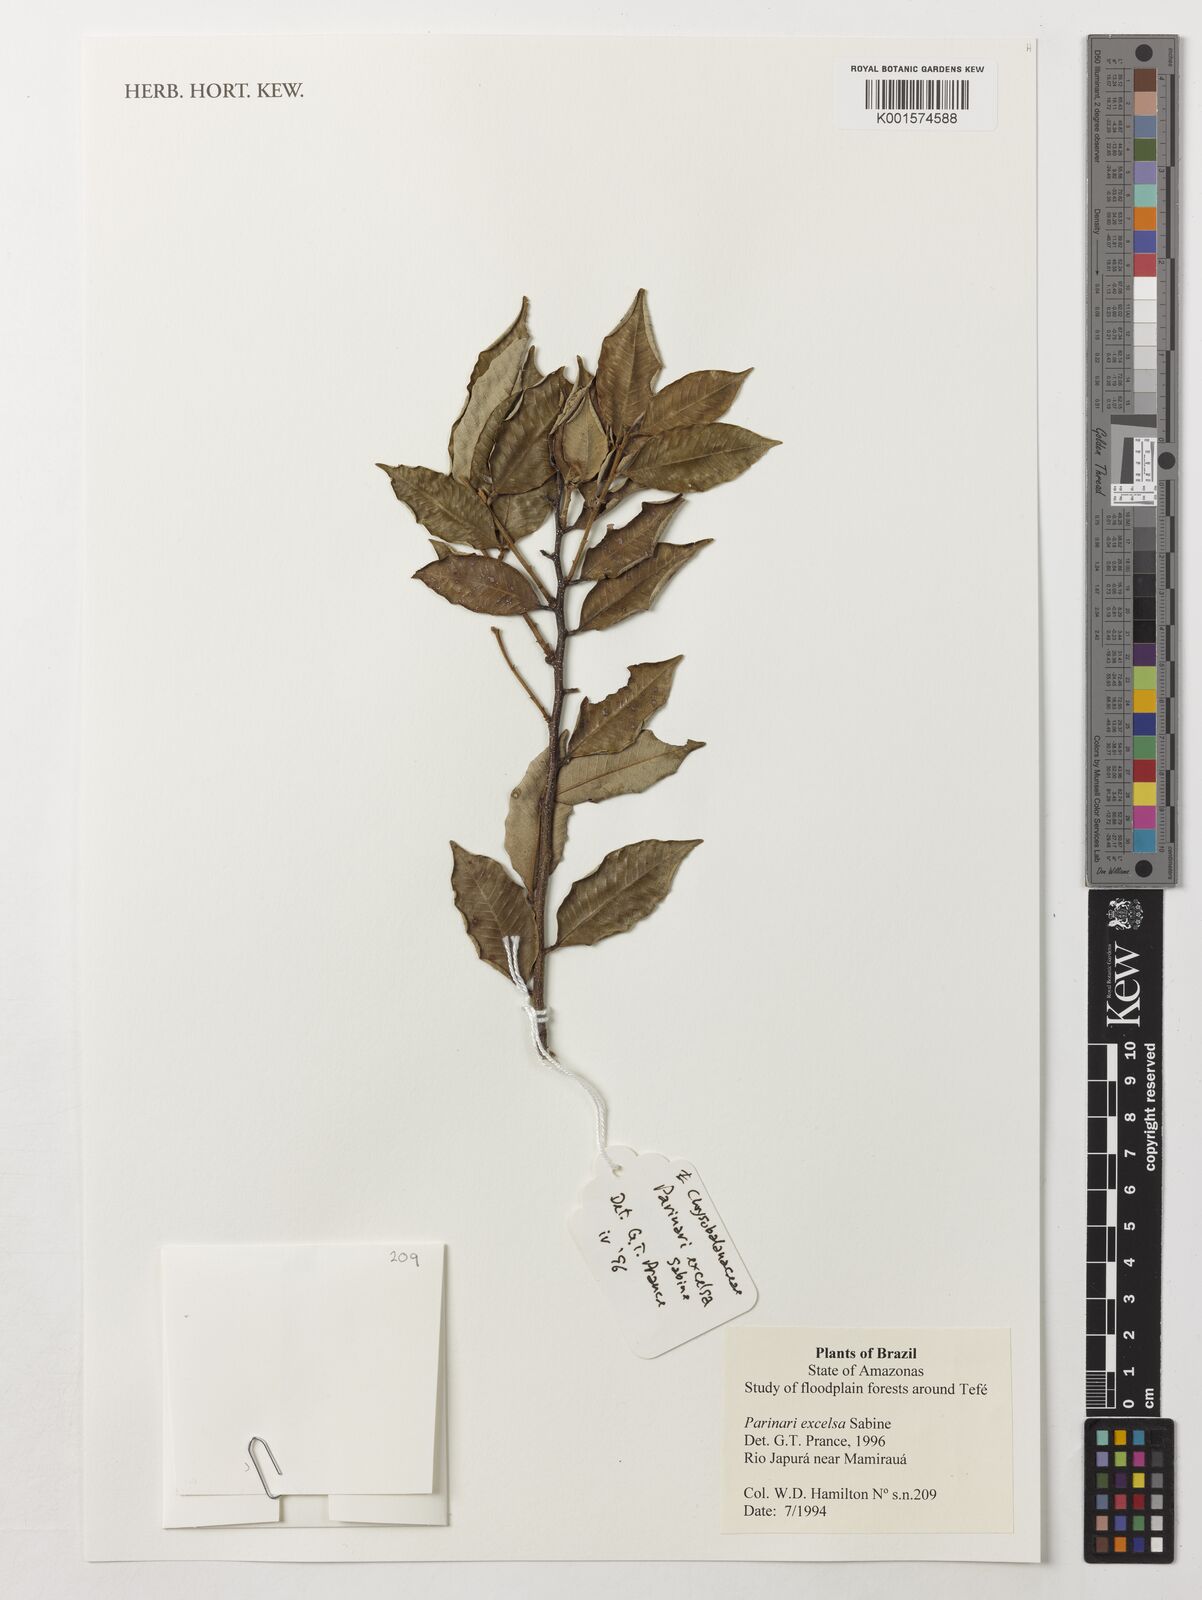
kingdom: Plantae
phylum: Tracheophyta
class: Magnoliopsida
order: Malpighiales
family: Chrysobalanaceae
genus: Parinari
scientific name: Parinari excelsa
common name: Guinea-plum
